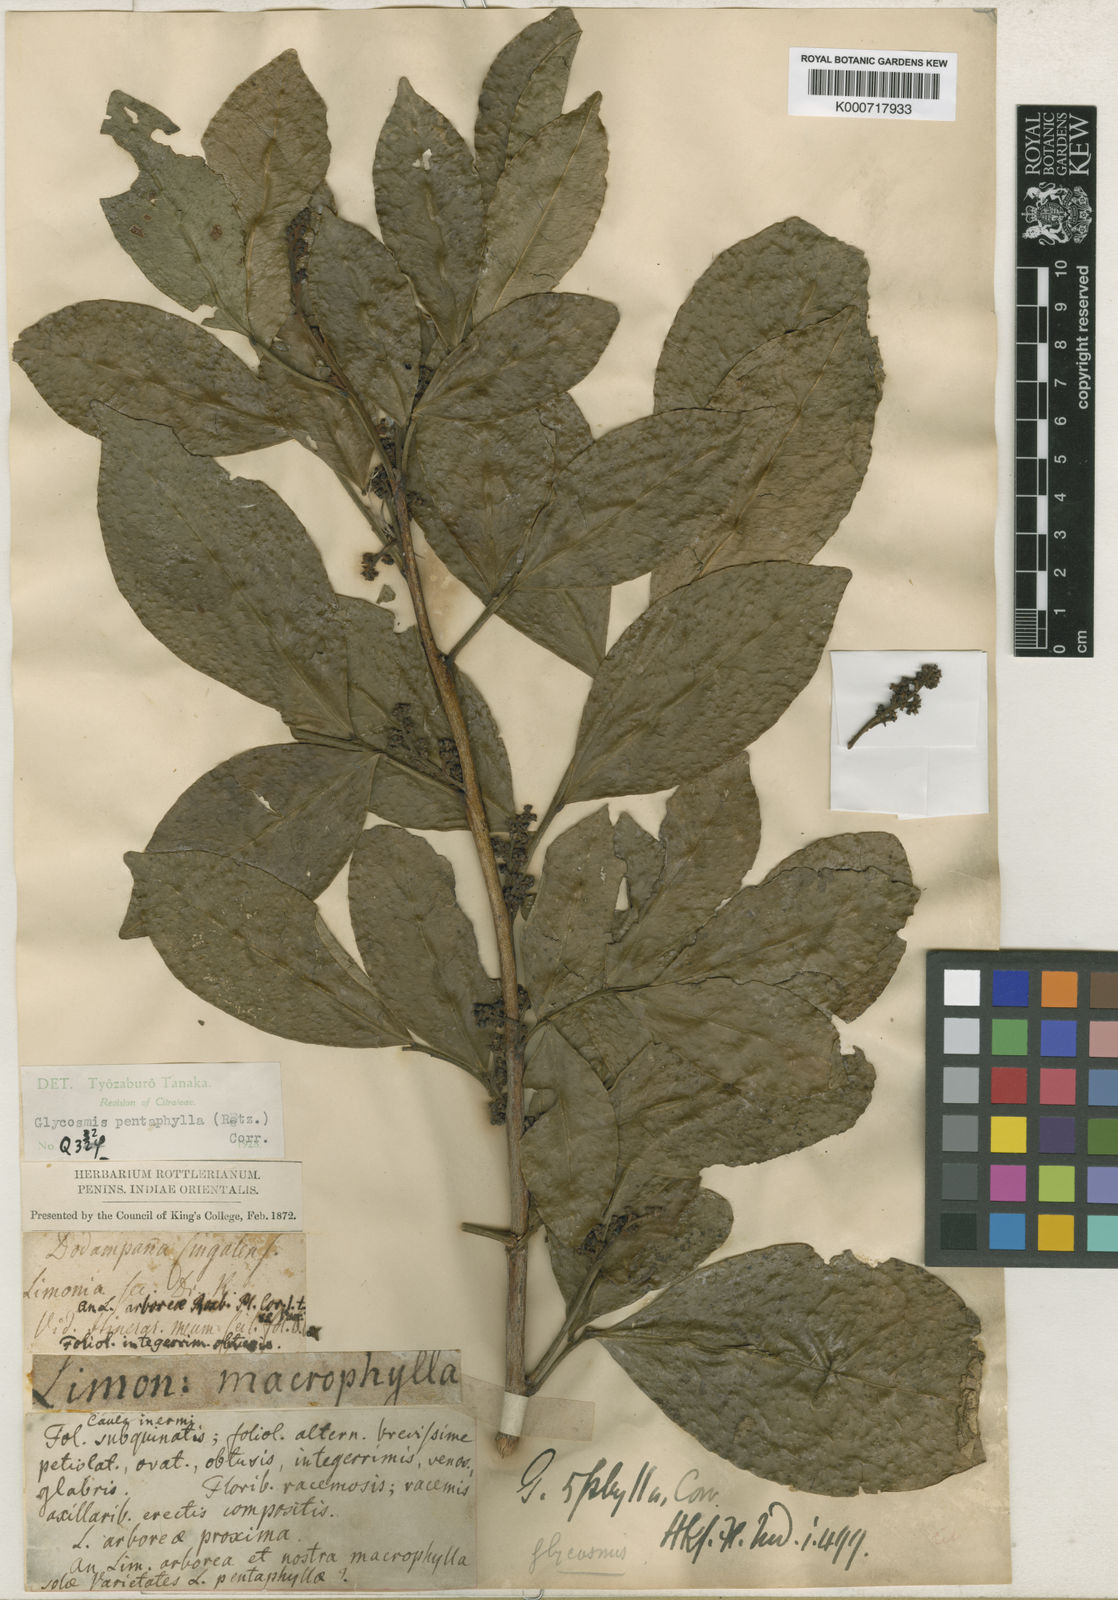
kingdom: Plantae
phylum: Tracheophyta
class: Magnoliopsida
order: Sapindales
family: Rutaceae
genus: Glycosmis
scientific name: Glycosmis
